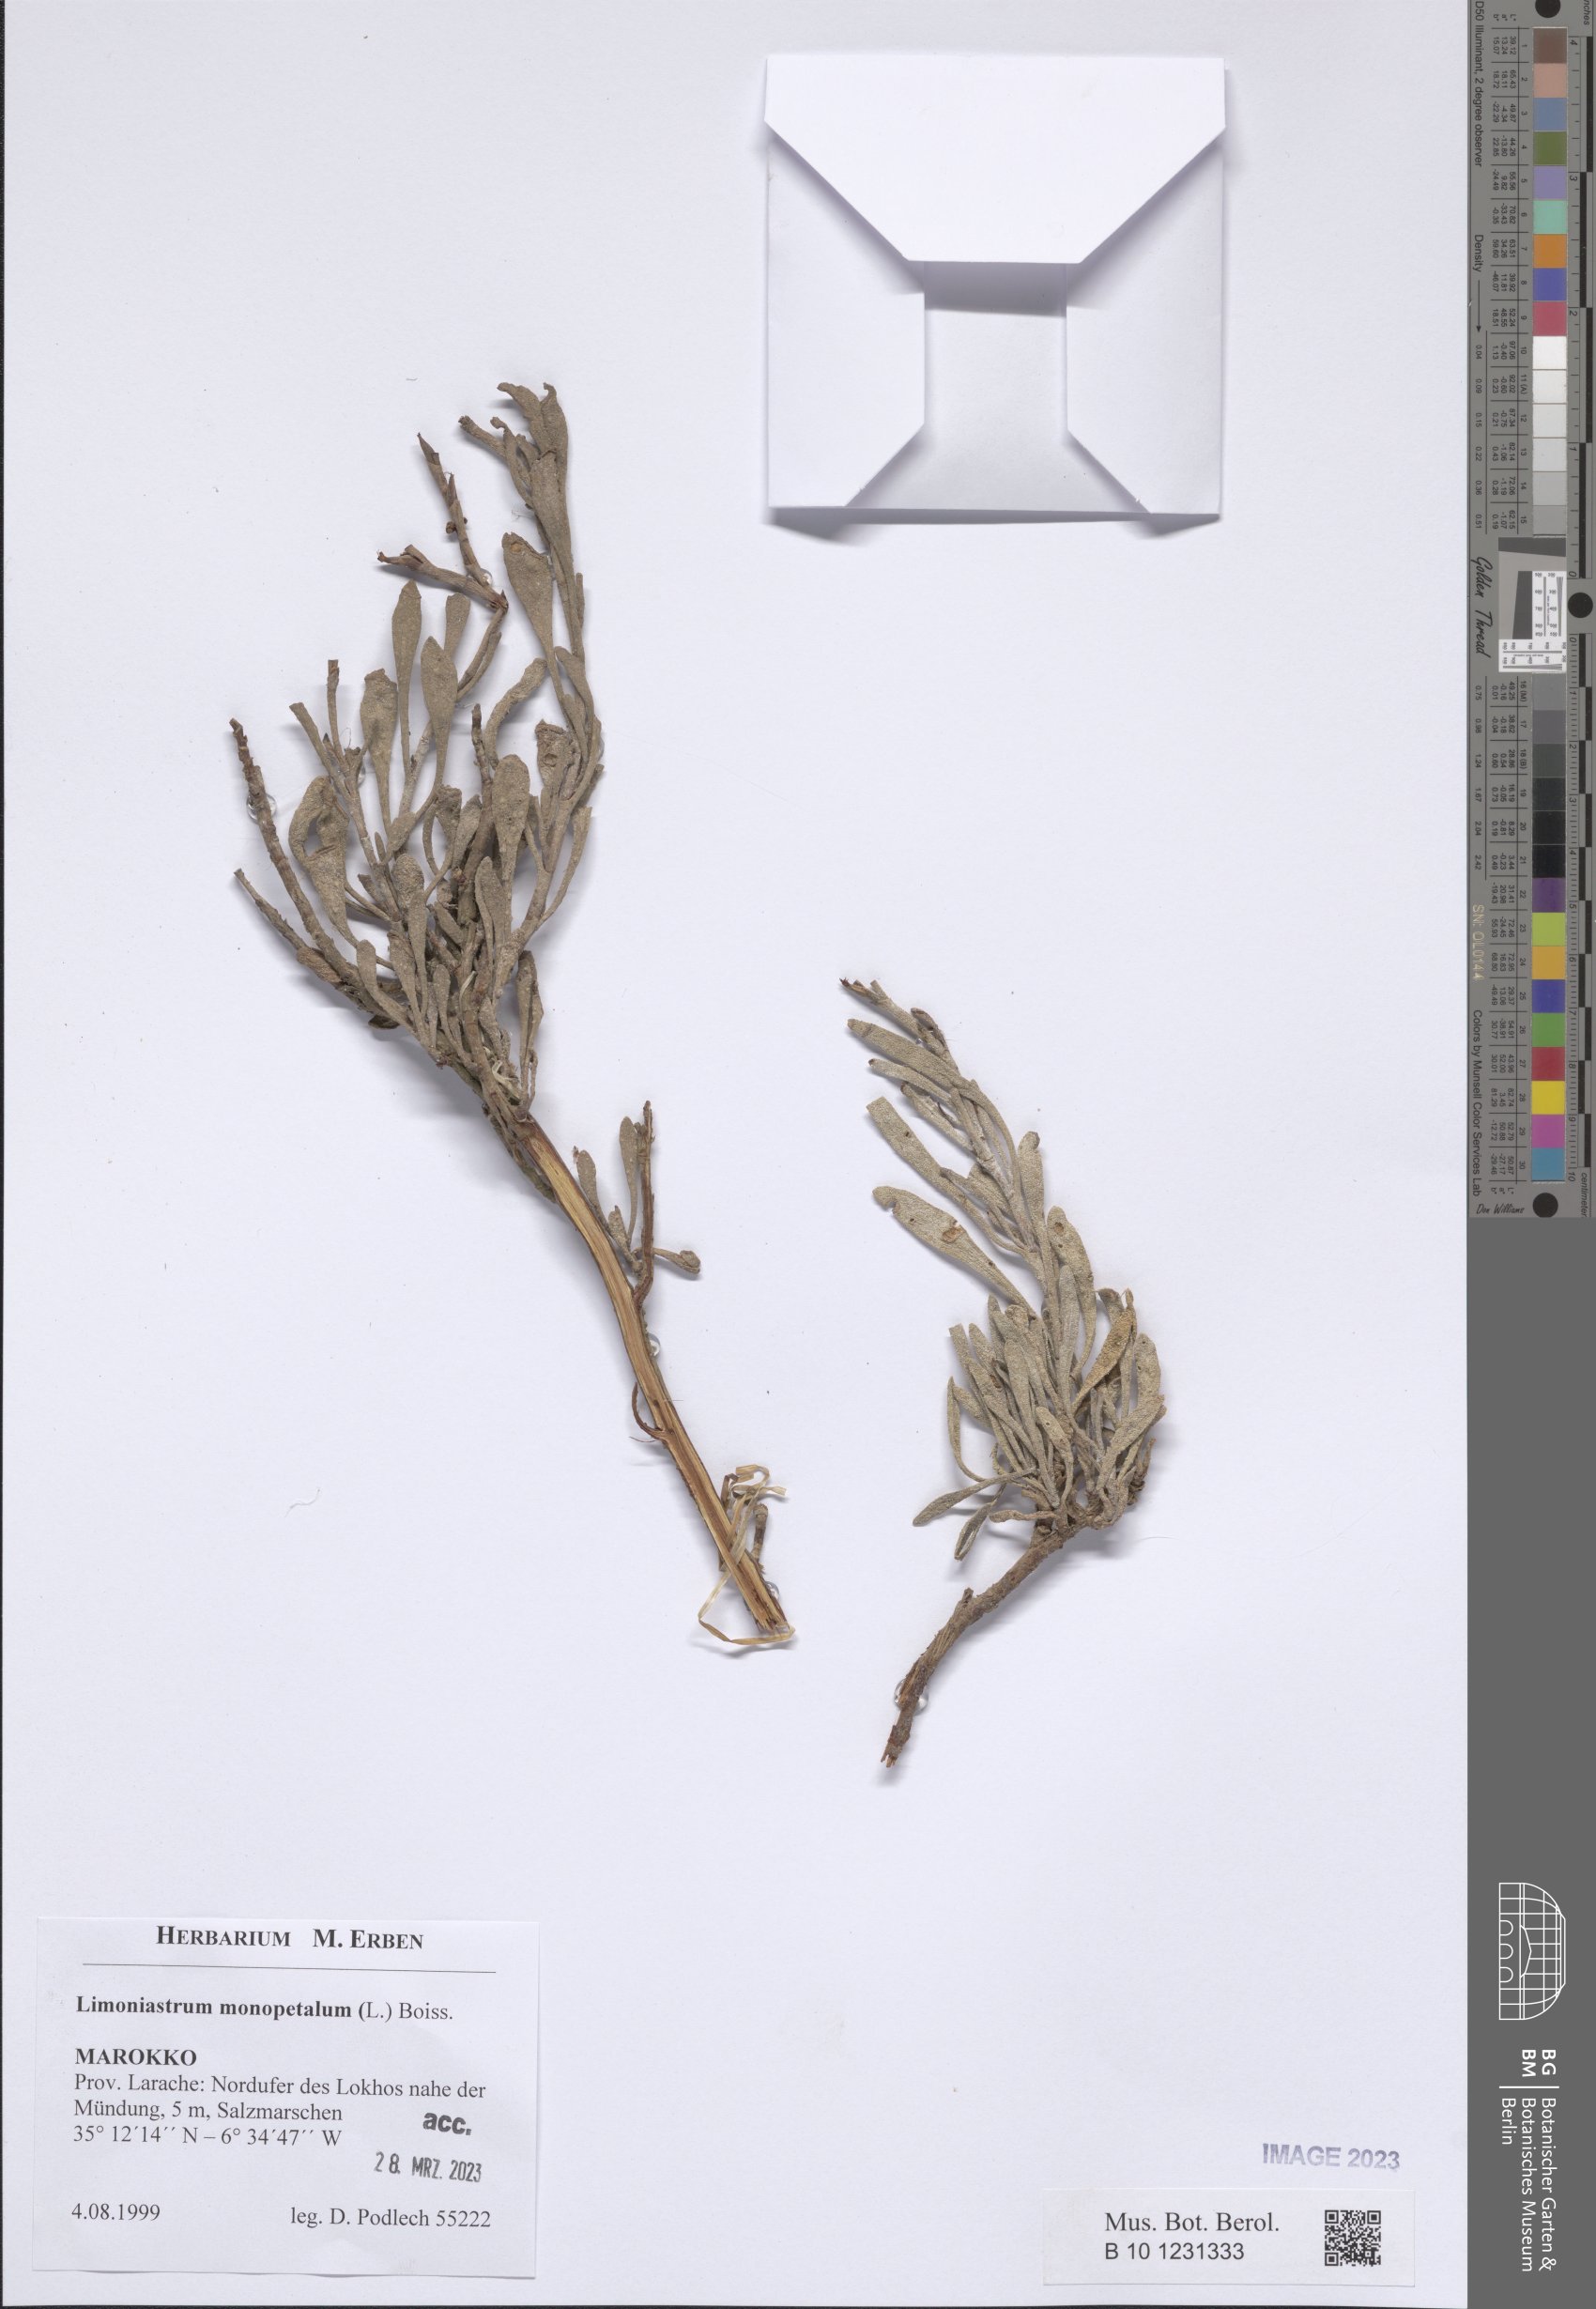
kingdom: Plantae
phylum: Tracheophyta
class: Magnoliopsida
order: Caryophyllales
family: Plumbaginaceae
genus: Limoniastrum
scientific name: Limoniastrum monopetalum
